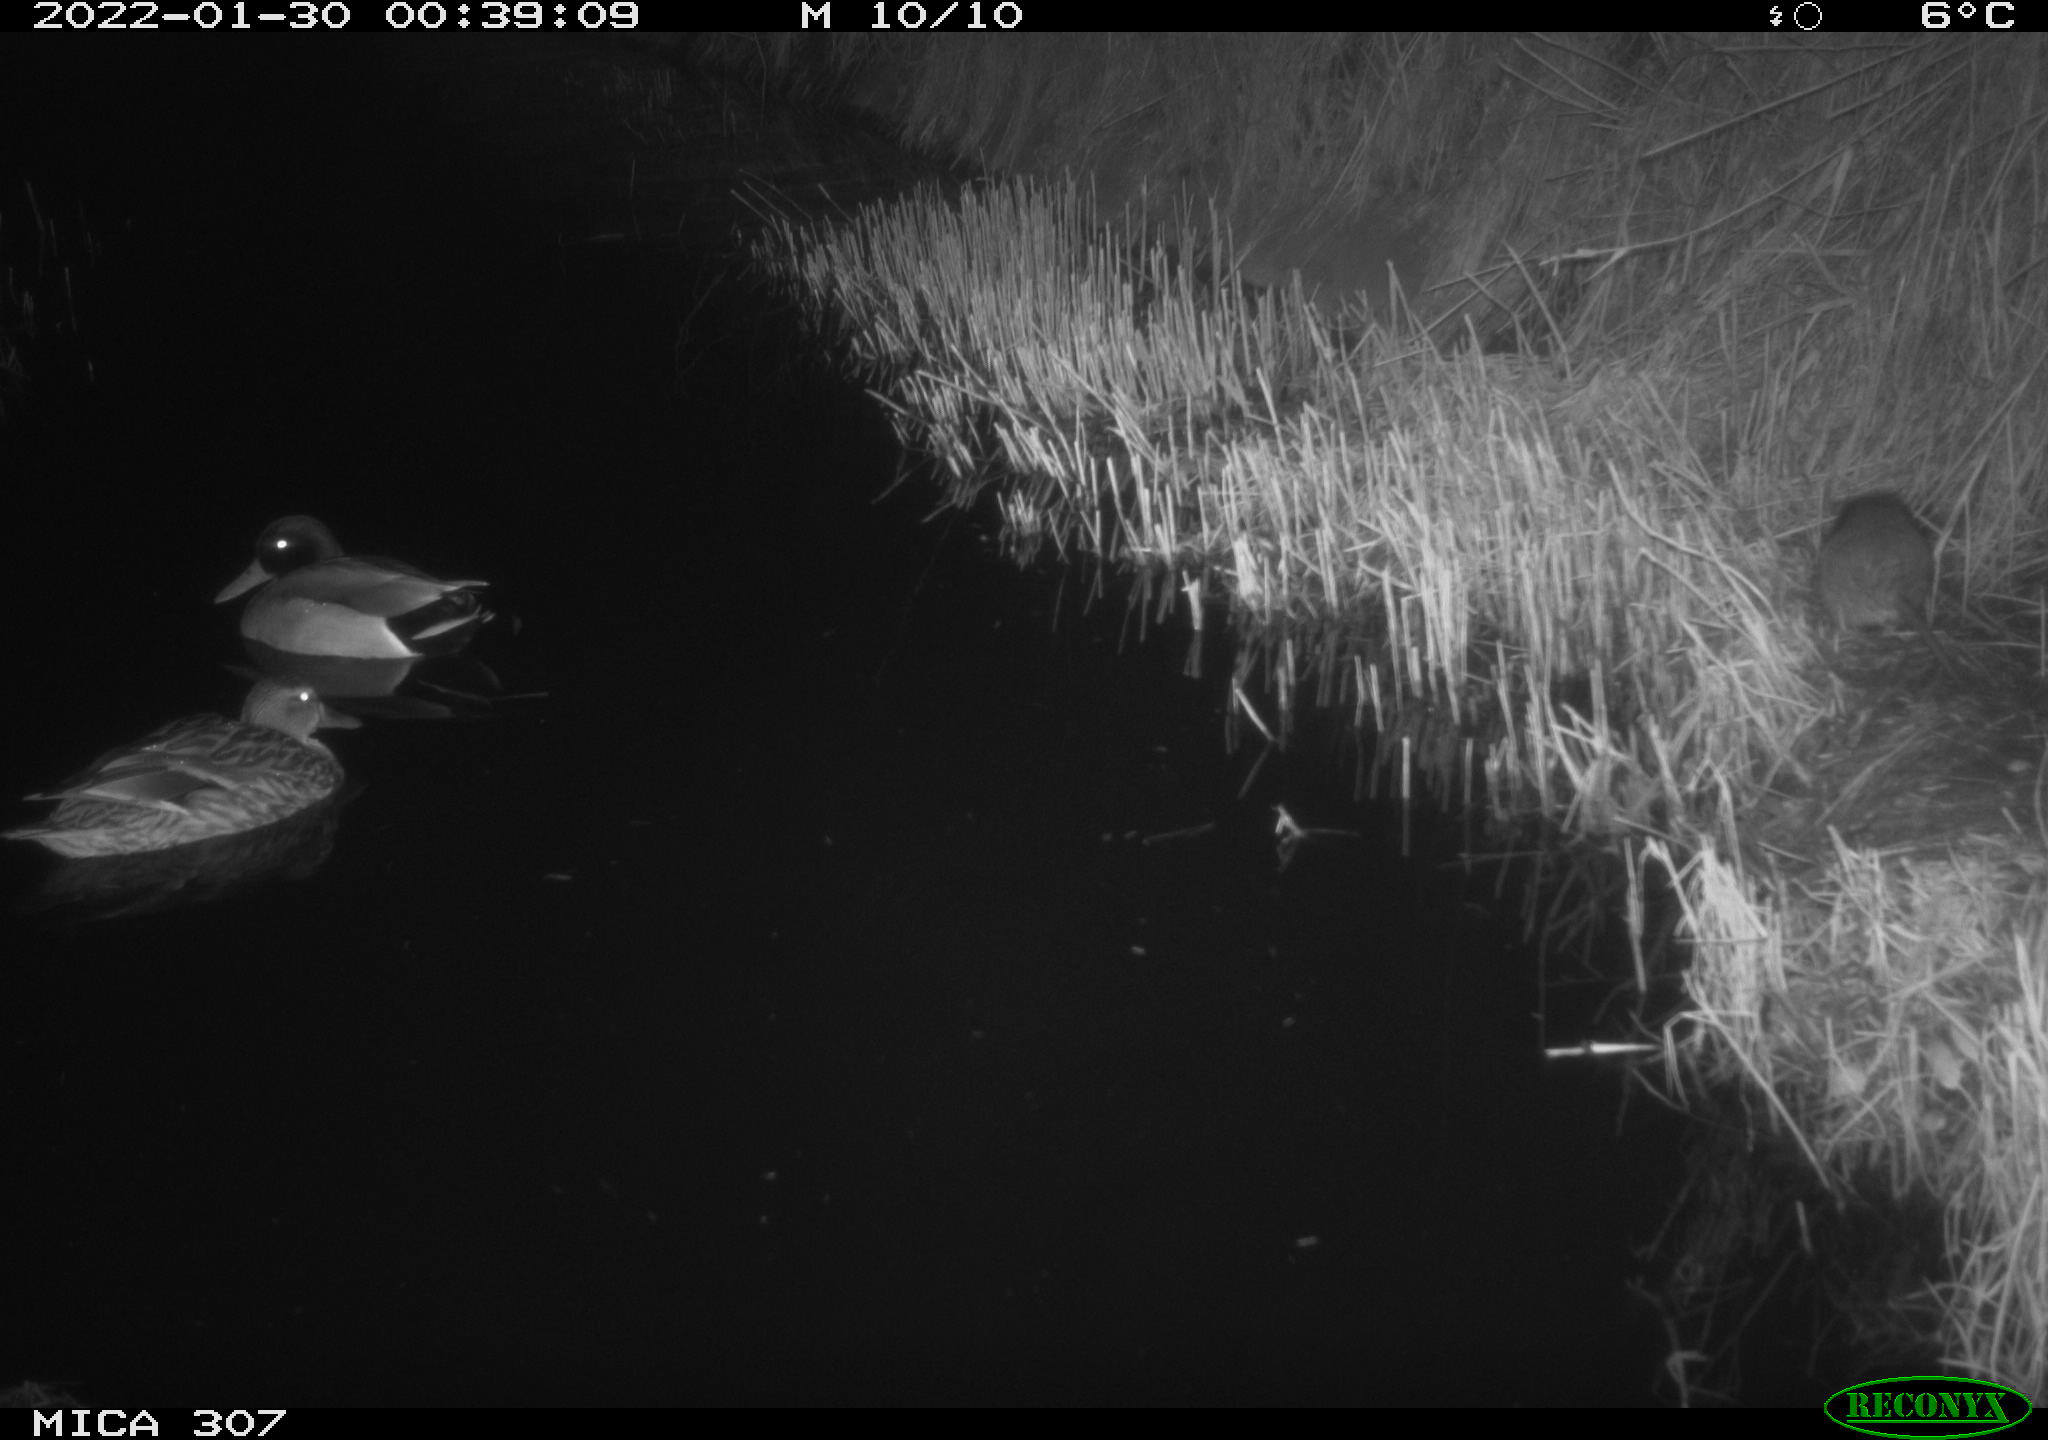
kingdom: Animalia
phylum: Chordata
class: Aves
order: Anseriformes
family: Anatidae
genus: Anas
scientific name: Anas platyrhynchos
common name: Mallard
